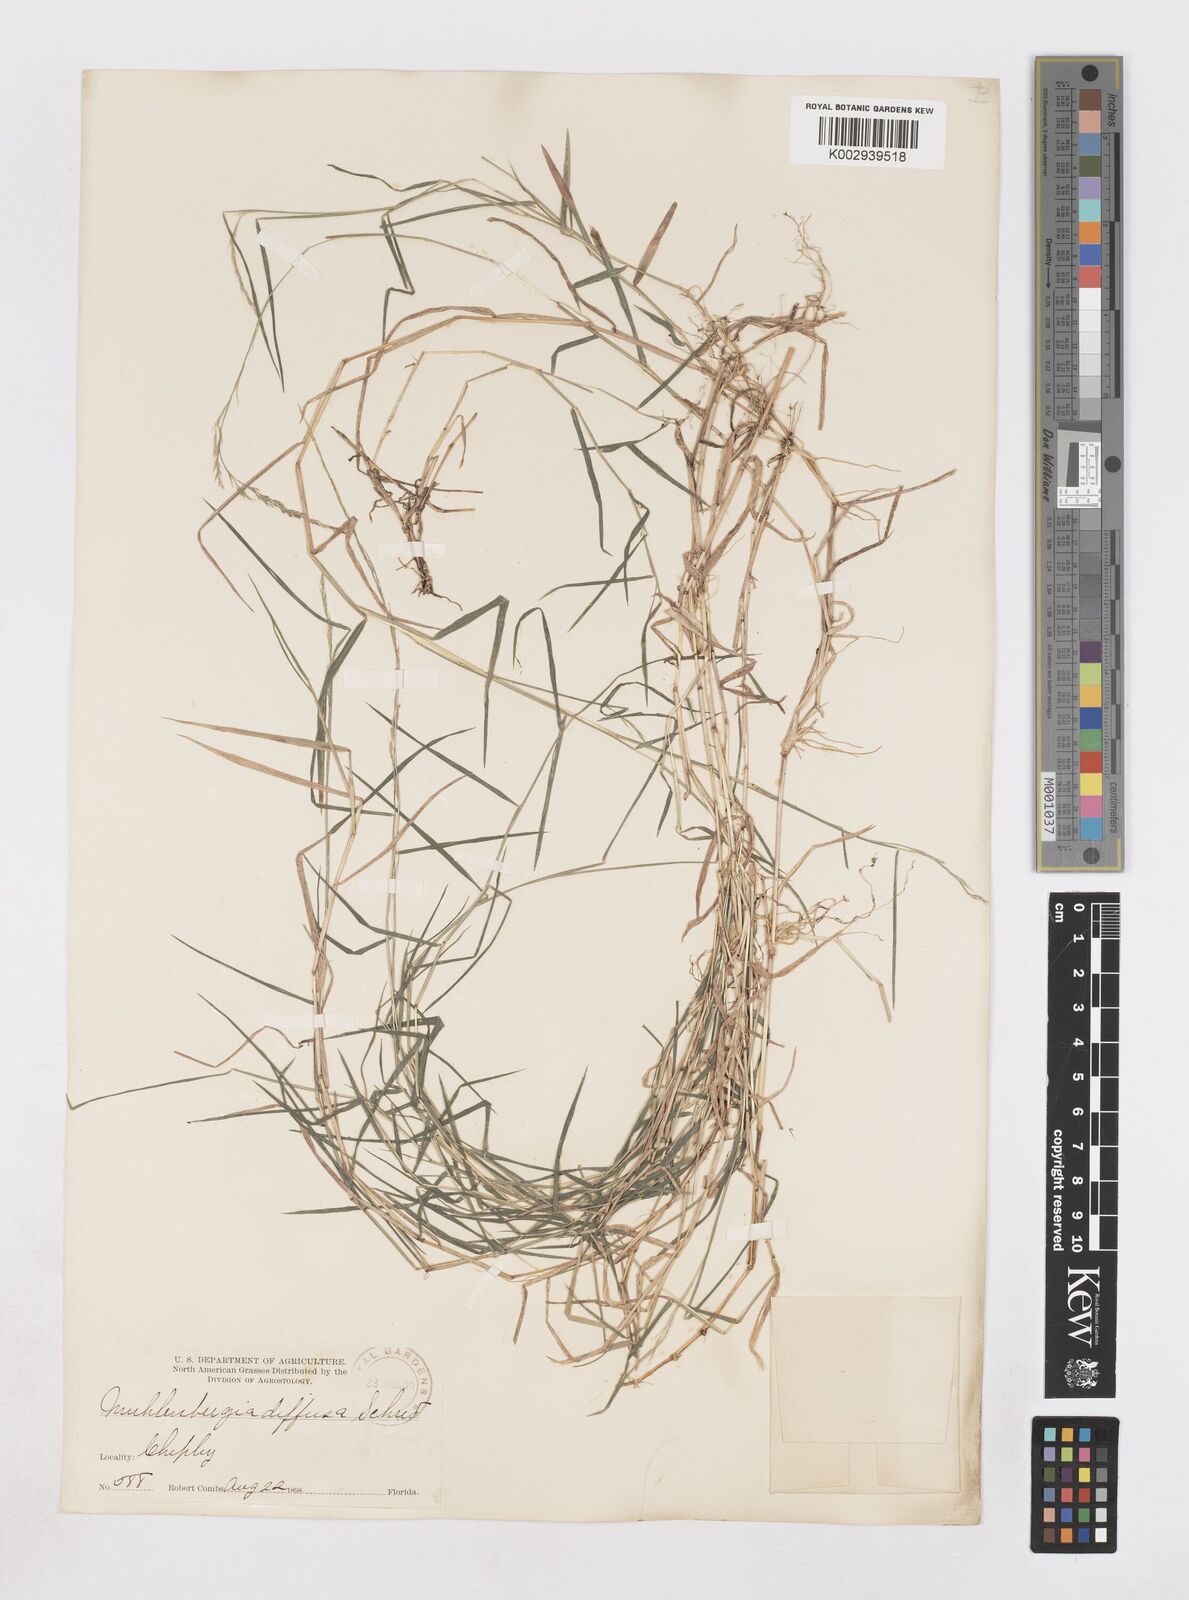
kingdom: Plantae
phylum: Tracheophyta
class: Liliopsida
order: Poales
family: Poaceae
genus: Muhlenbergia
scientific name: Muhlenbergia schreberi
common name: Nimblewill
